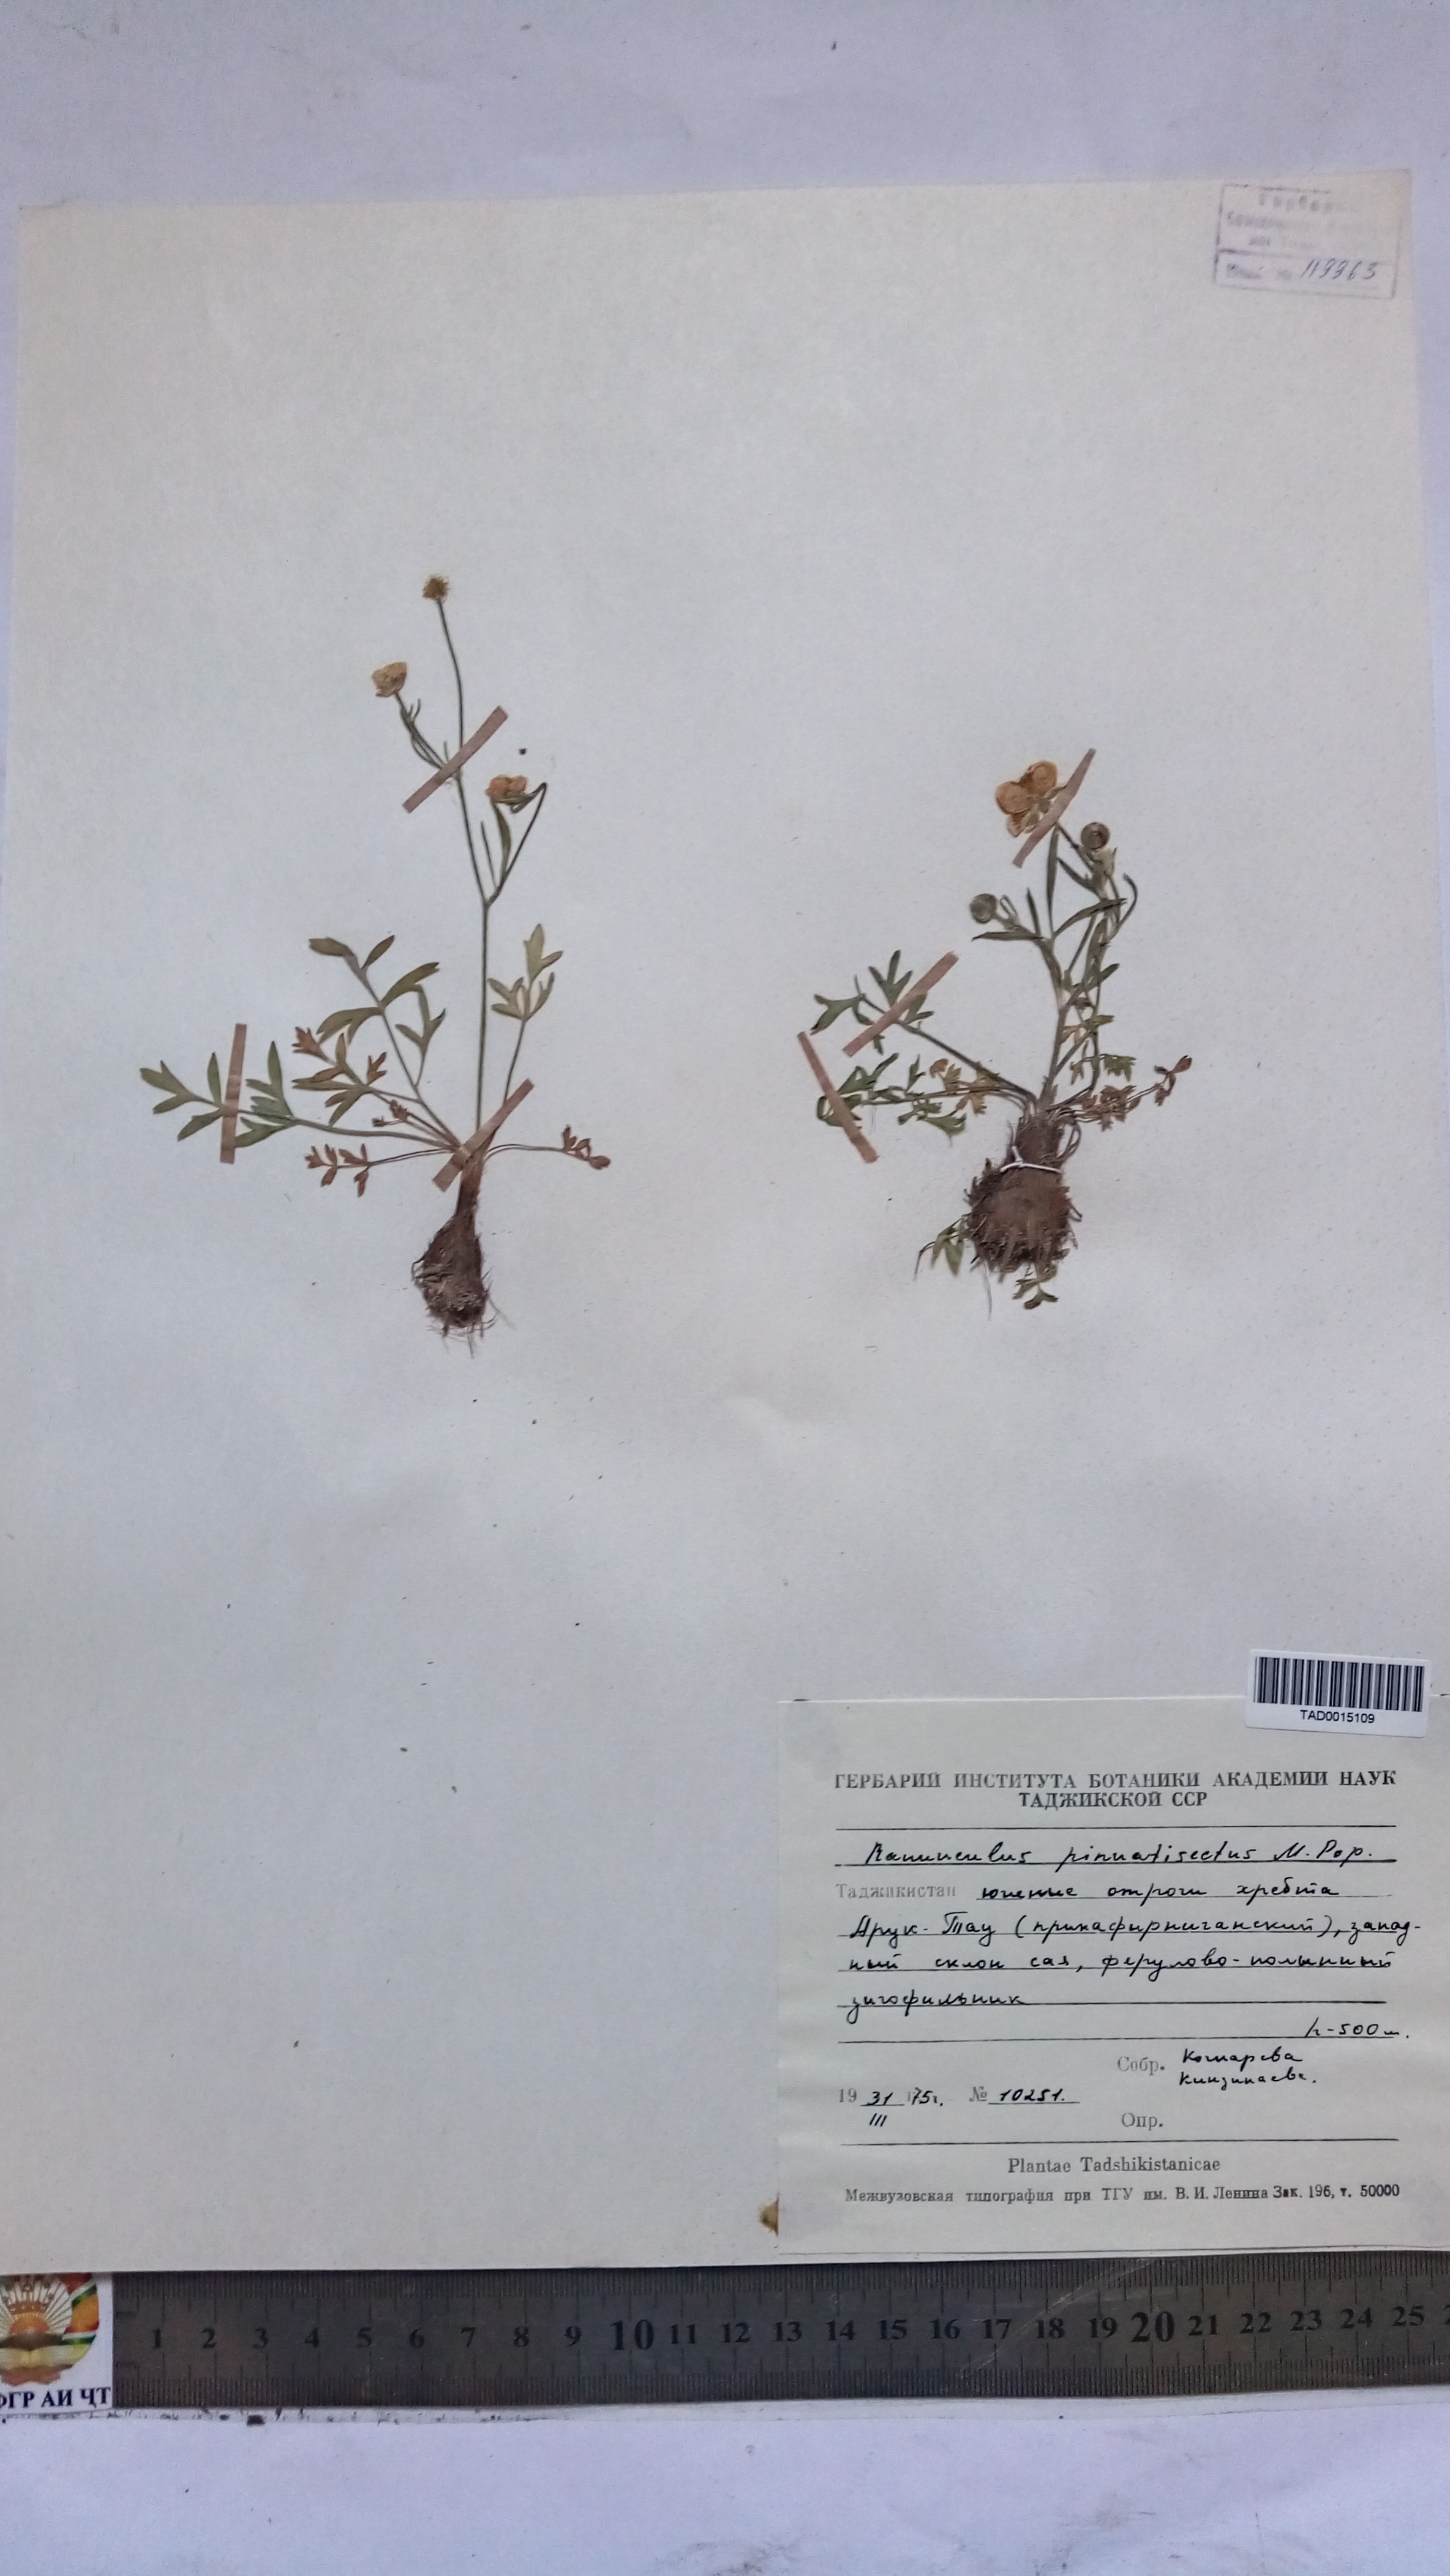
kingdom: Plantae
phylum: Tracheophyta
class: Magnoliopsida
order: Ranunculales
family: Ranunculaceae
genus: Ranunculus
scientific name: Ranunculus pinnatisectus
